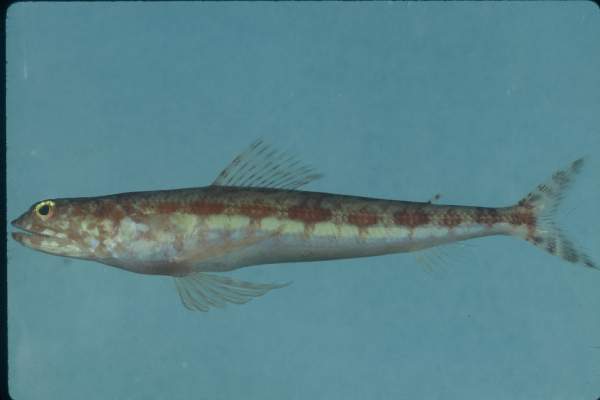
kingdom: Animalia
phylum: Chordata
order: Aulopiformes
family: Synodontidae
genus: Synodus
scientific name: Synodus variegatus
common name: Variegated lizardfish
